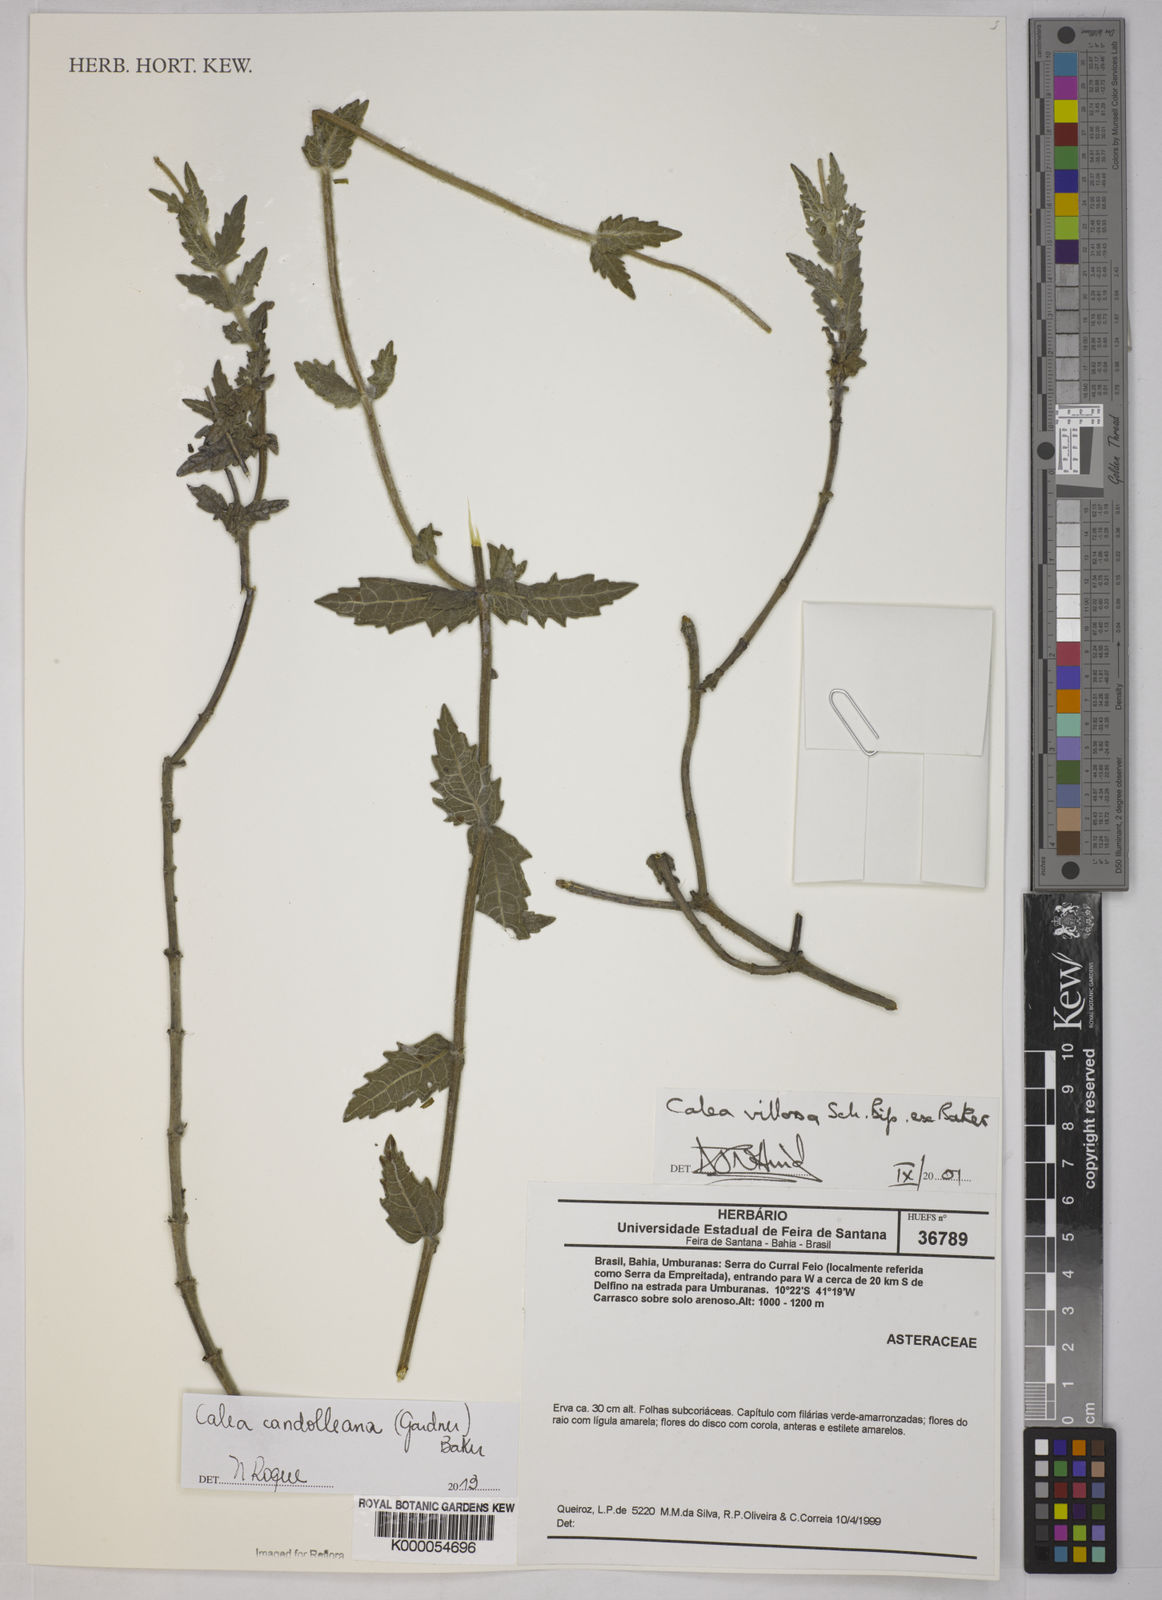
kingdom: Plantae
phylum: Tracheophyta
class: Magnoliopsida
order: Asterales
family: Asteraceae
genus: Calea
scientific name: Calea villosa
